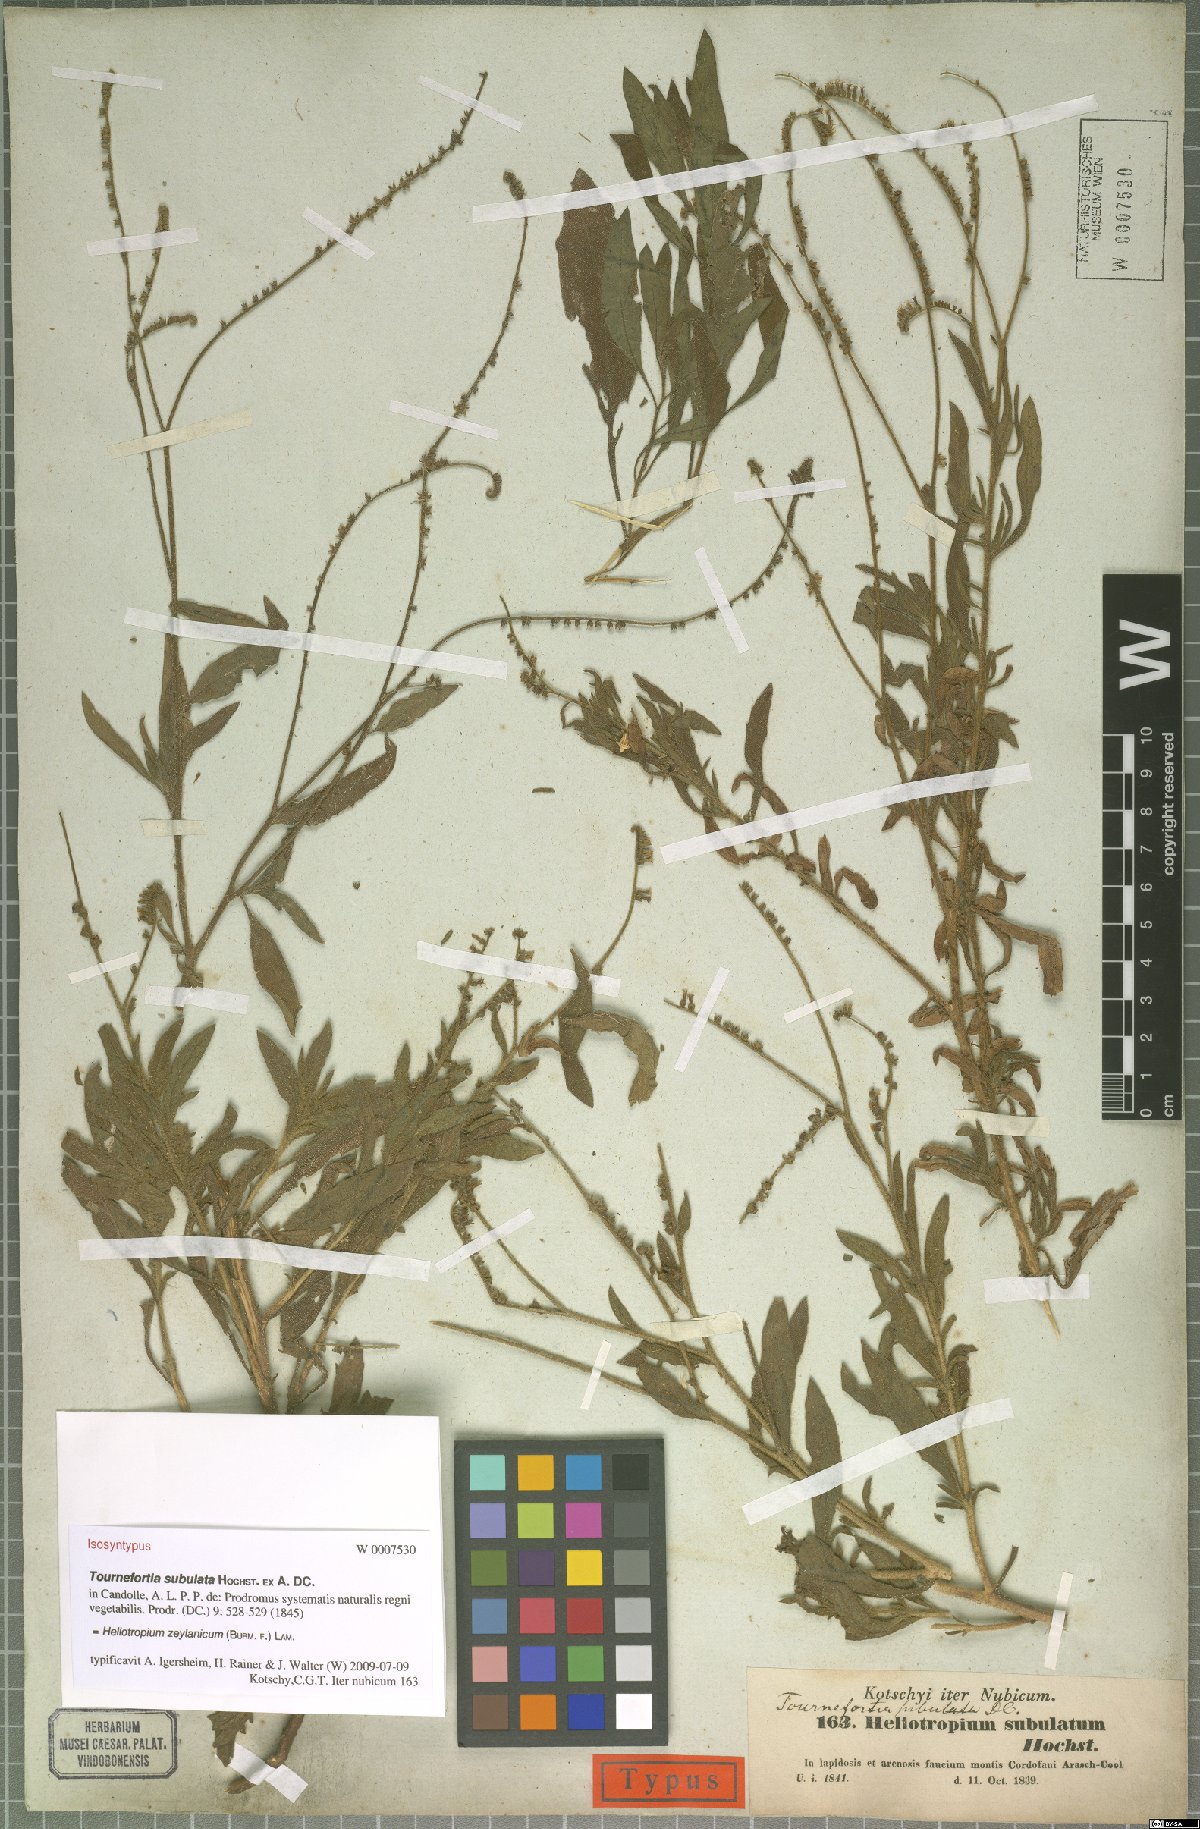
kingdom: Plantae
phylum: Tracheophyta
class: Magnoliopsida
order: Boraginales
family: Heliotropiaceae
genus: Heliotropium
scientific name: Heliotropium zeylanicum
